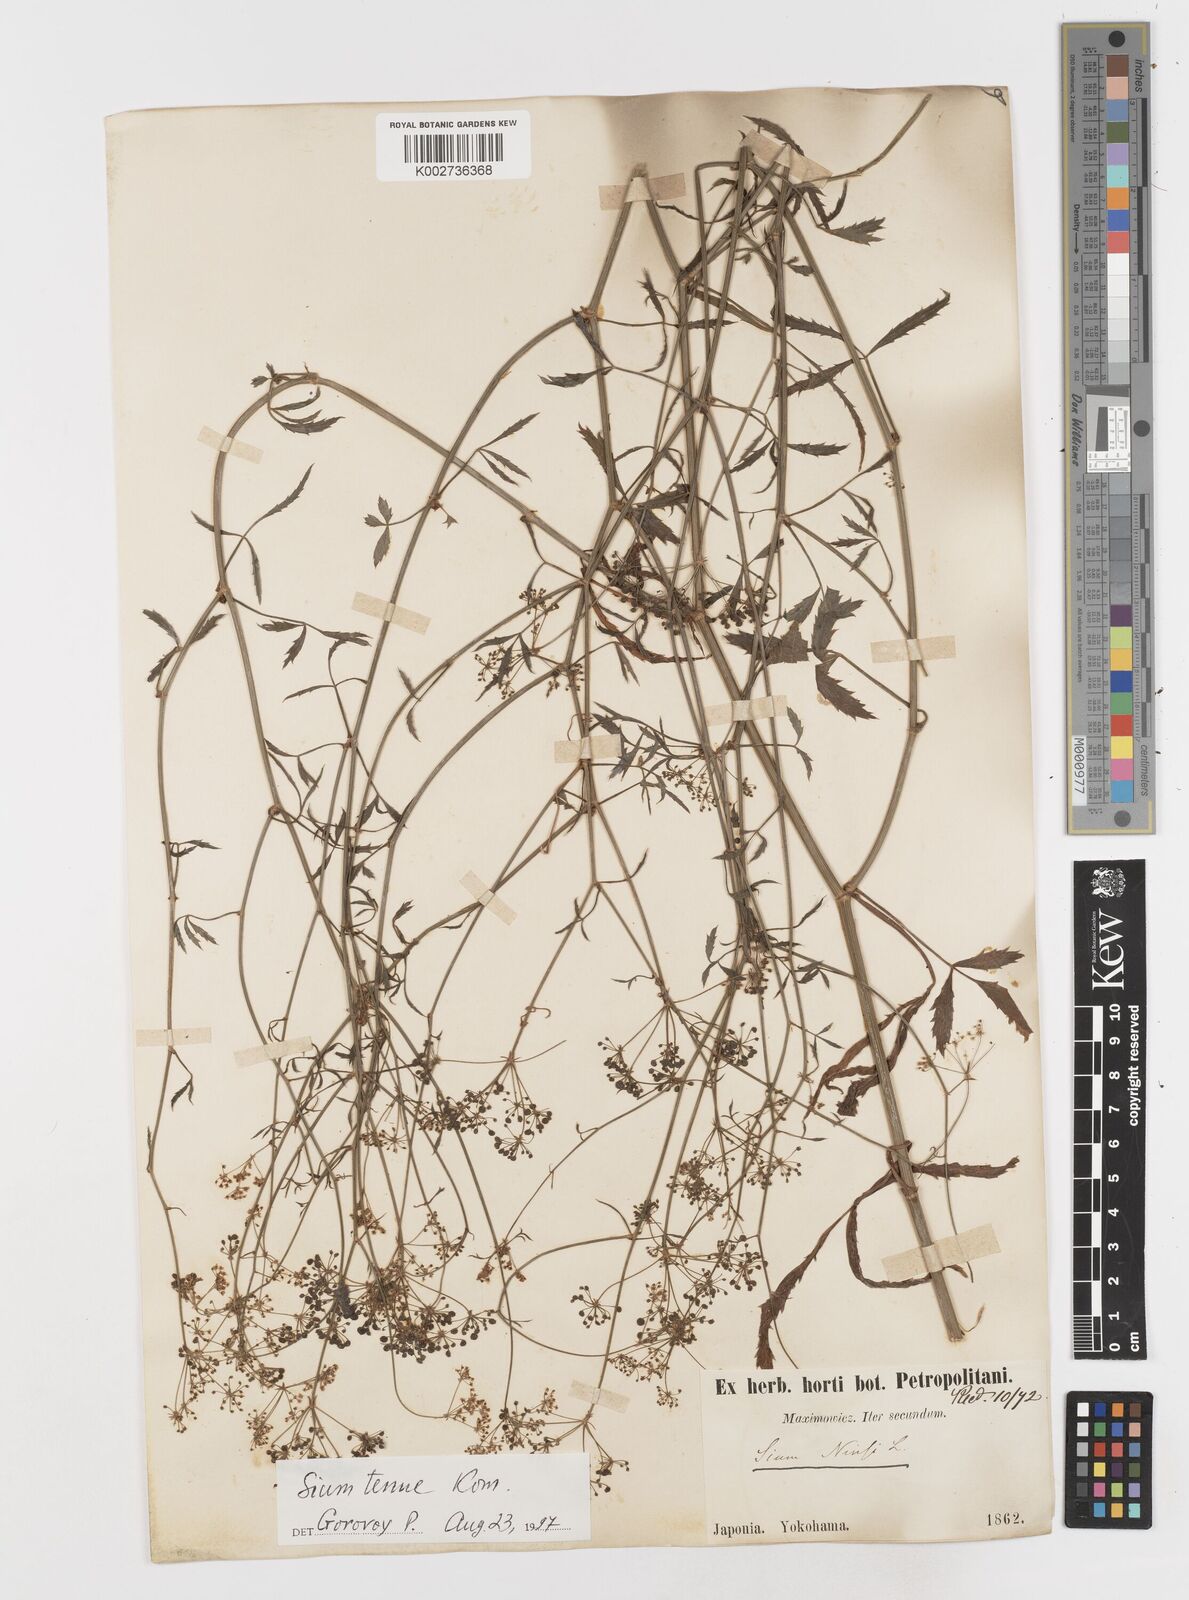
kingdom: Plantae
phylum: Tracheophyta
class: Magnoliopsida
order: Apiales
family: Apiaceae
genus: Sium
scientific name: Sium ninsi
